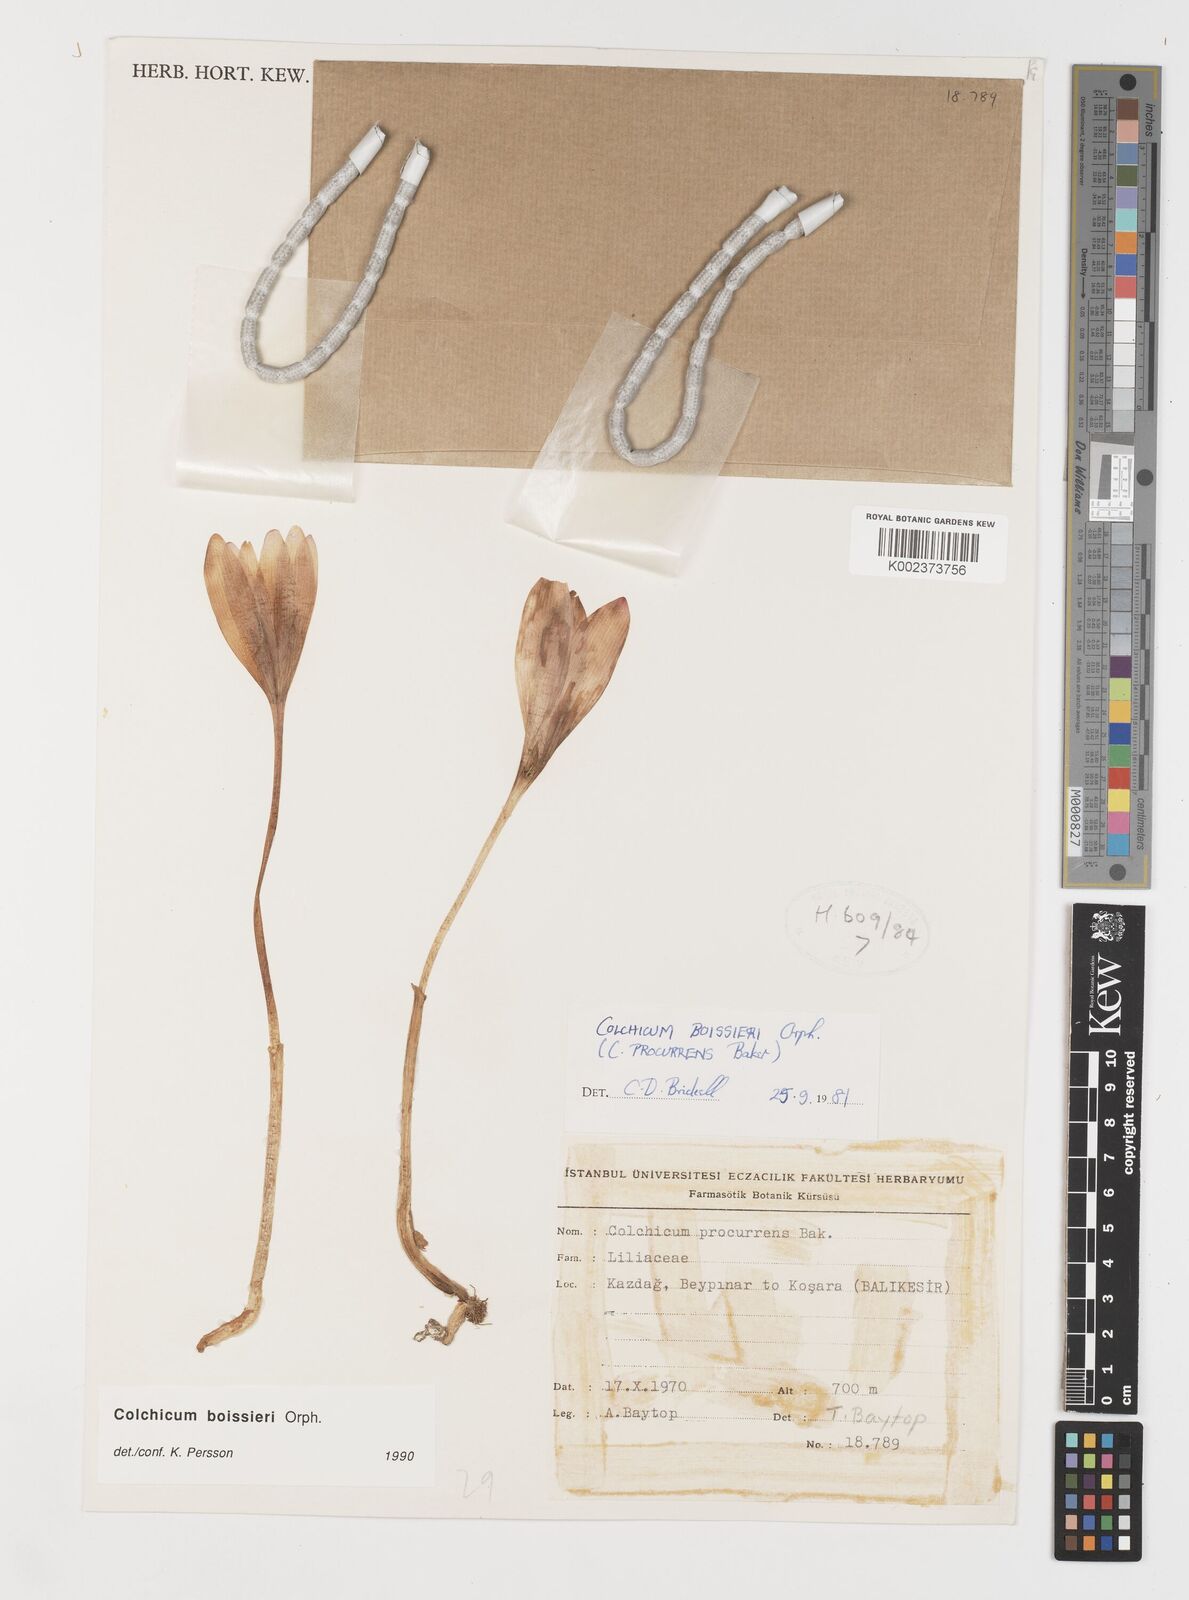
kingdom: Plantae
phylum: Tracheophyta
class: Liliopsida
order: Liliales
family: Colchicaceae
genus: Colchicum
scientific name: Colchicum boissieri
